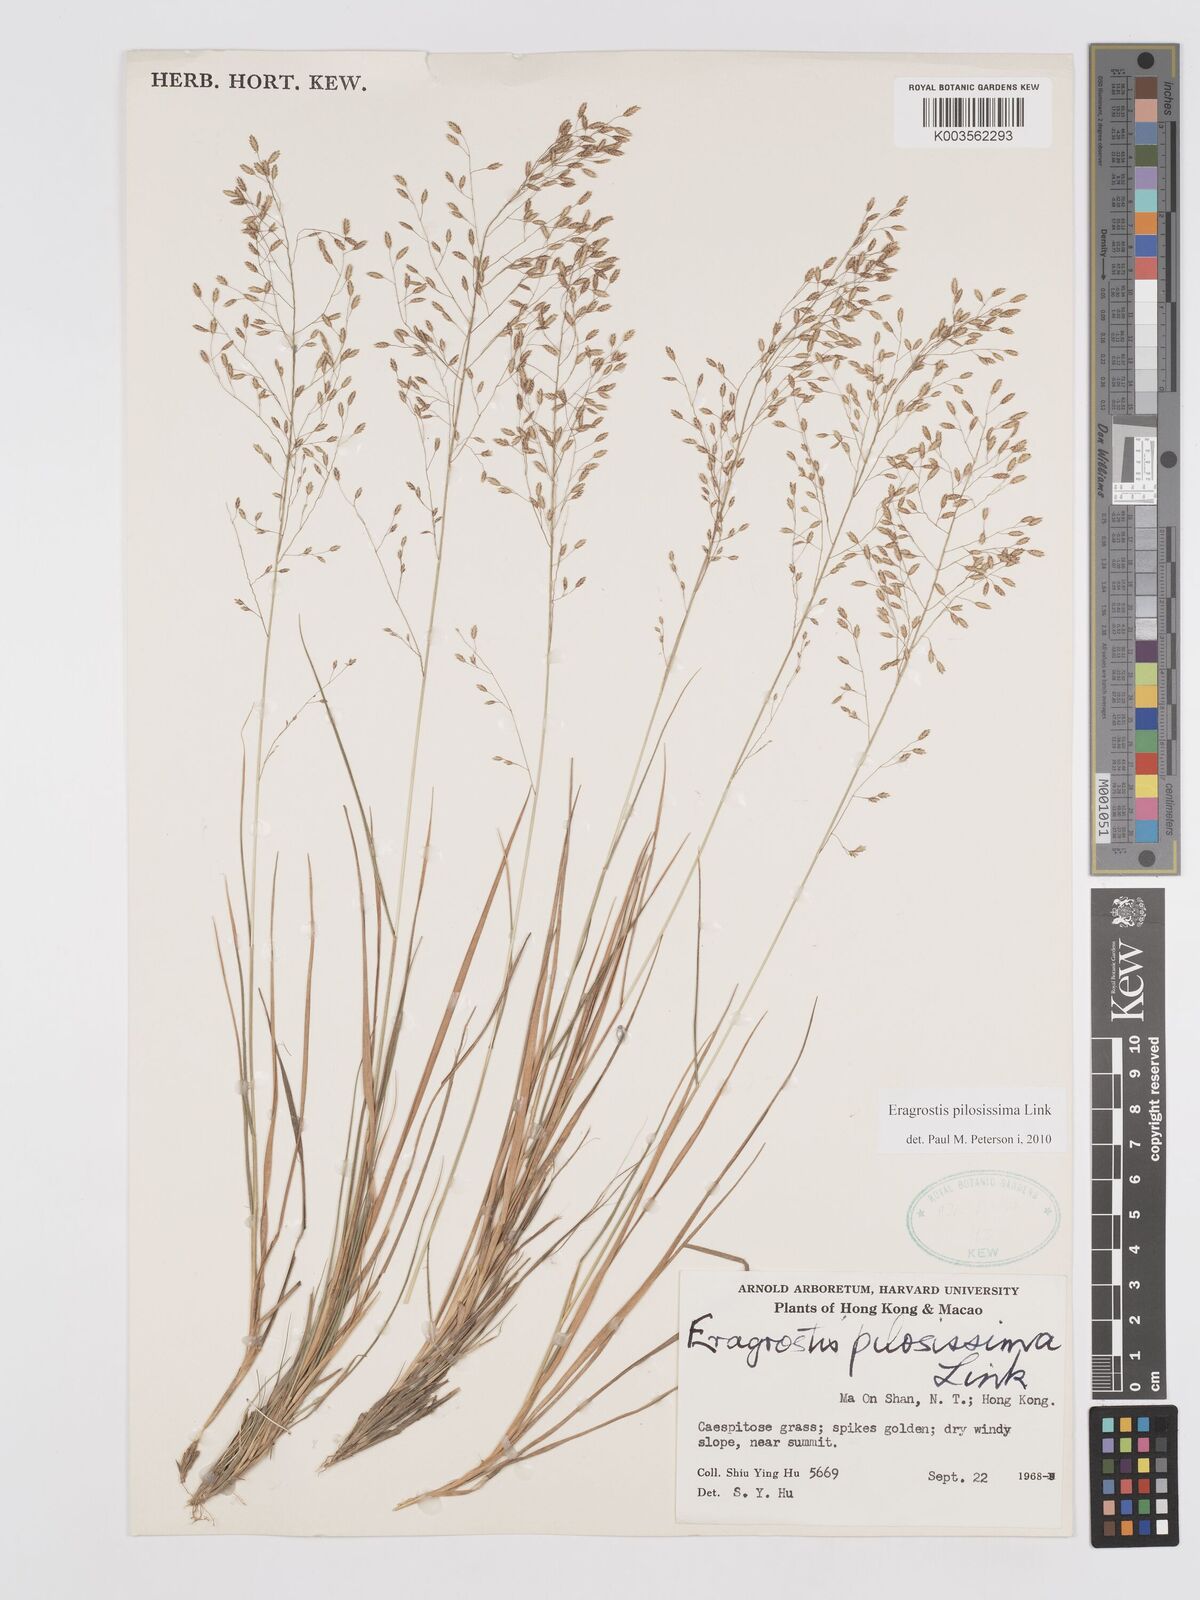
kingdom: Plantae
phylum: Tracheophyta
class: Liliopsida
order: Poales
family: Poaceae
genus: Eragrostis
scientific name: Eragrostis pilosissima
